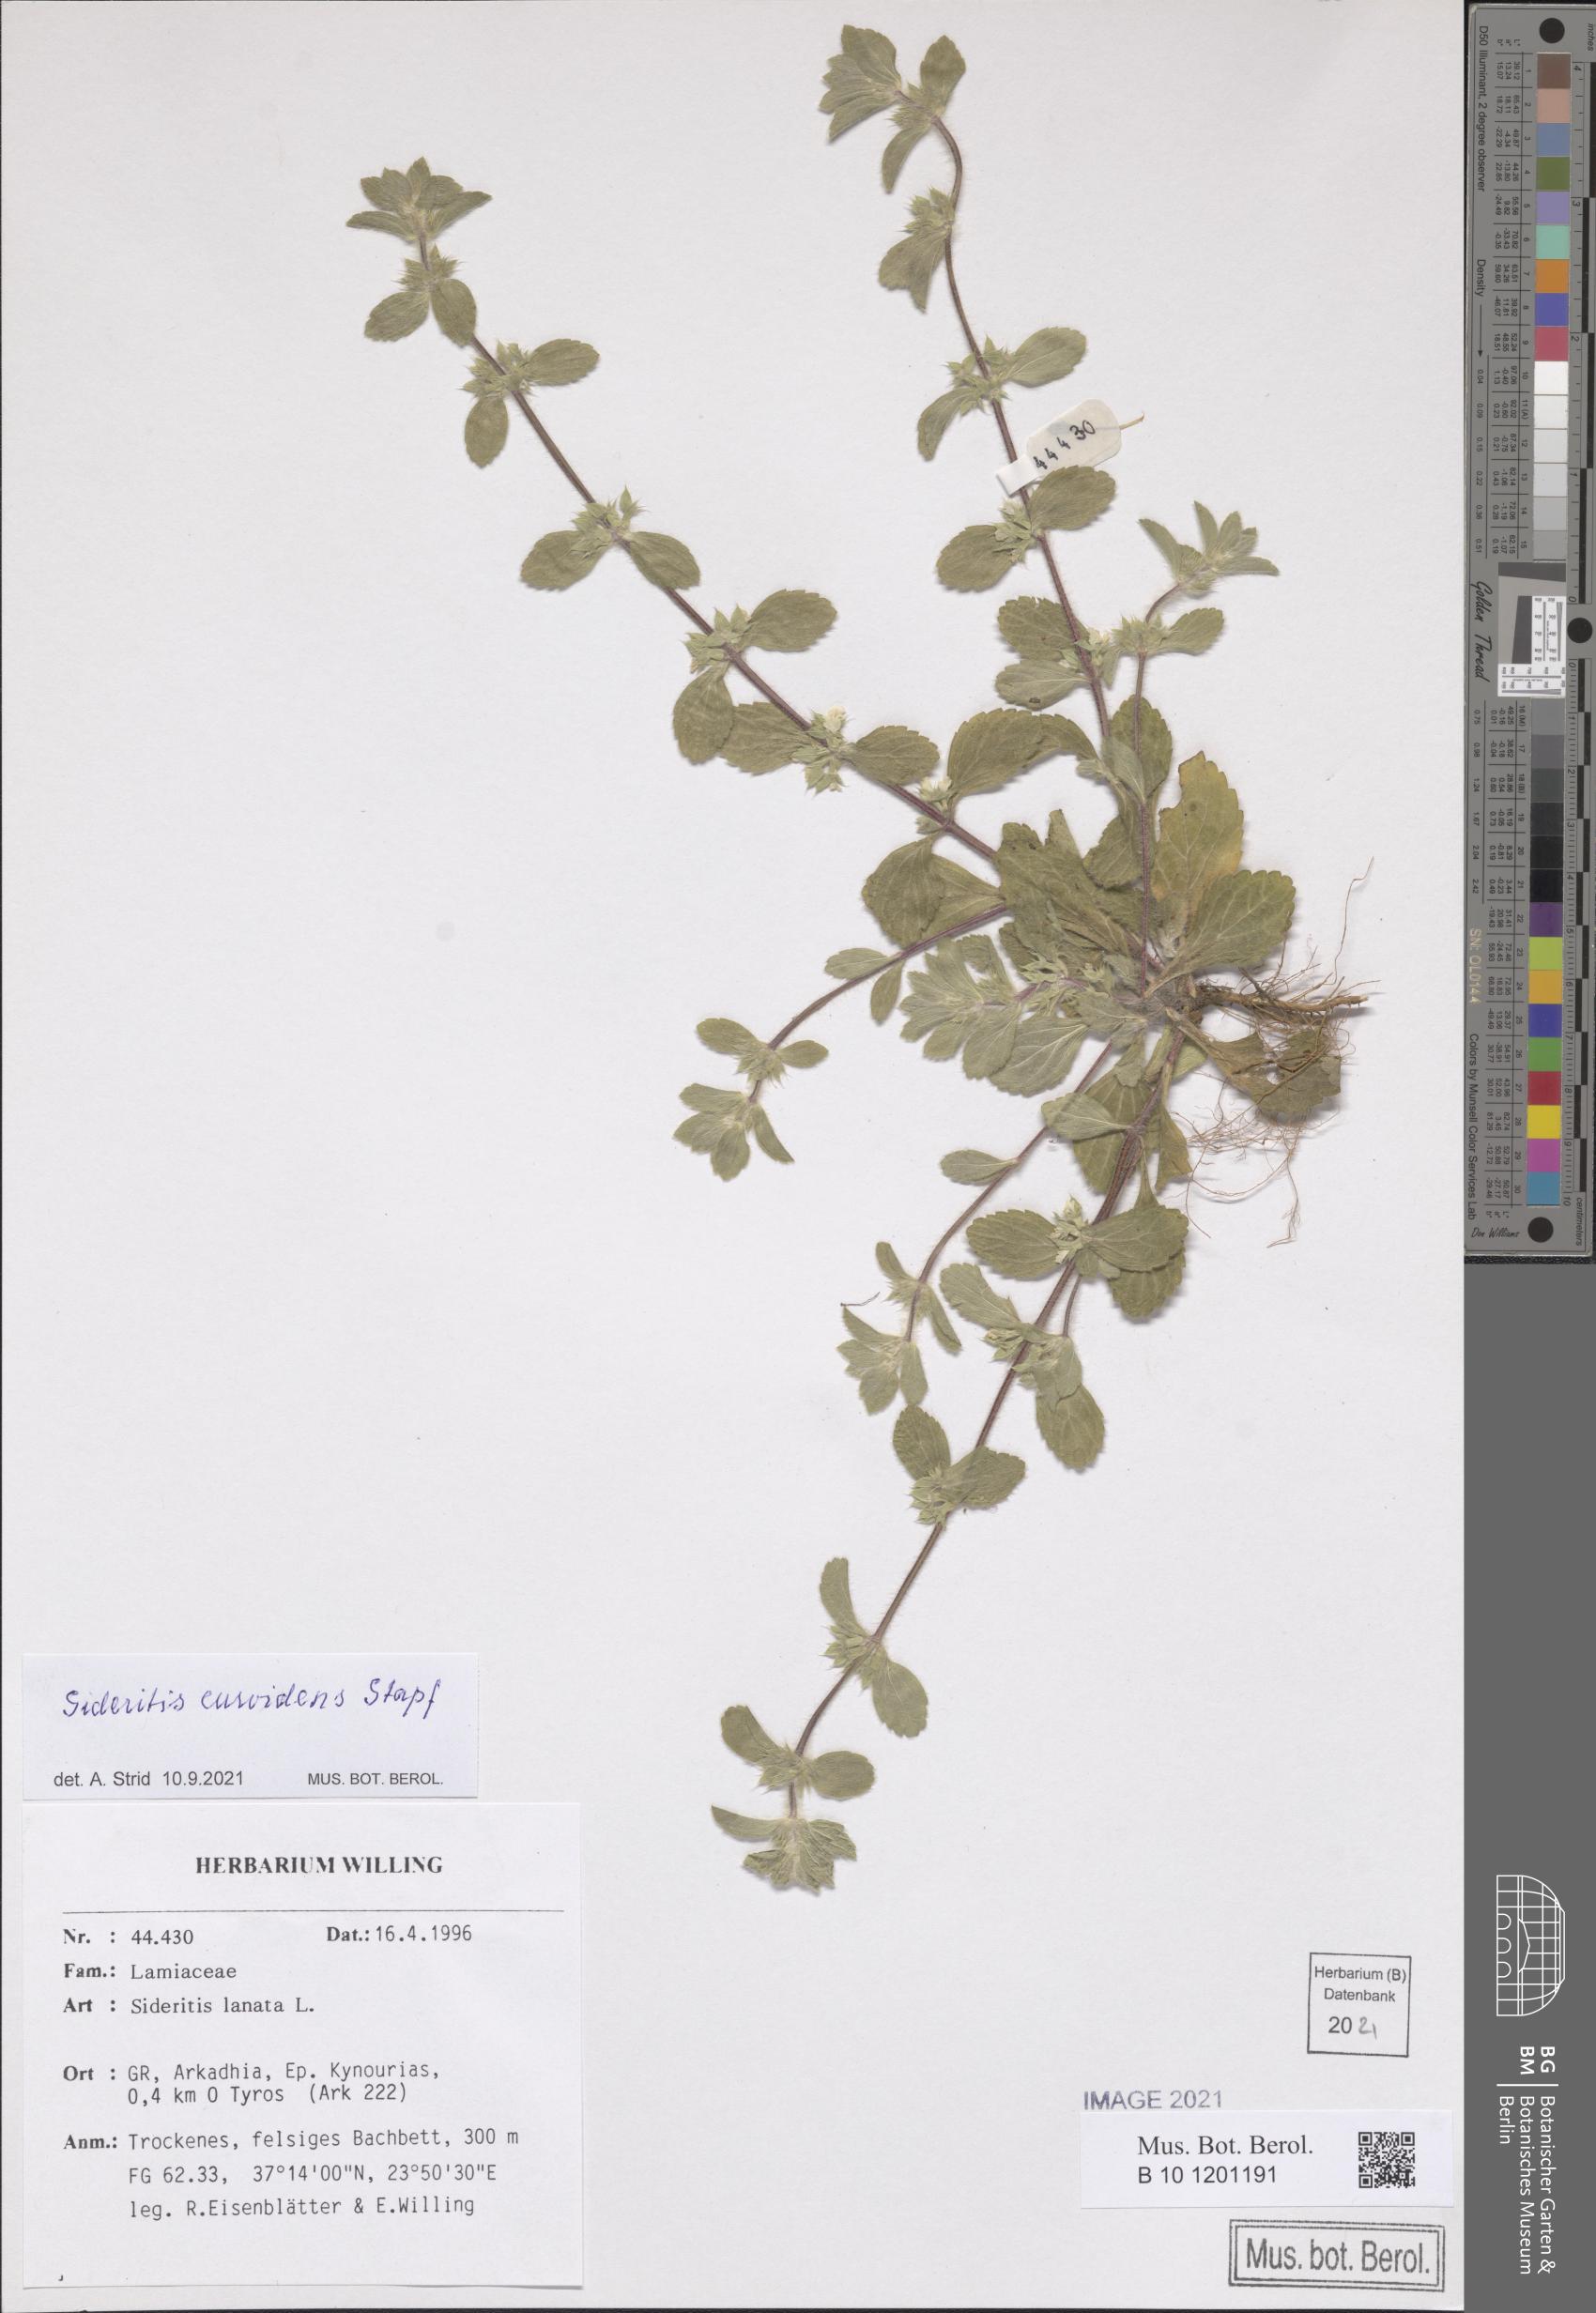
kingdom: Plantae
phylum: Tracheophyta
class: Magnoliopsida
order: Lamiales
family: Lamiaceae
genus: Sideritis
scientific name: Sideritis romana
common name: Simplebeak ironwort
